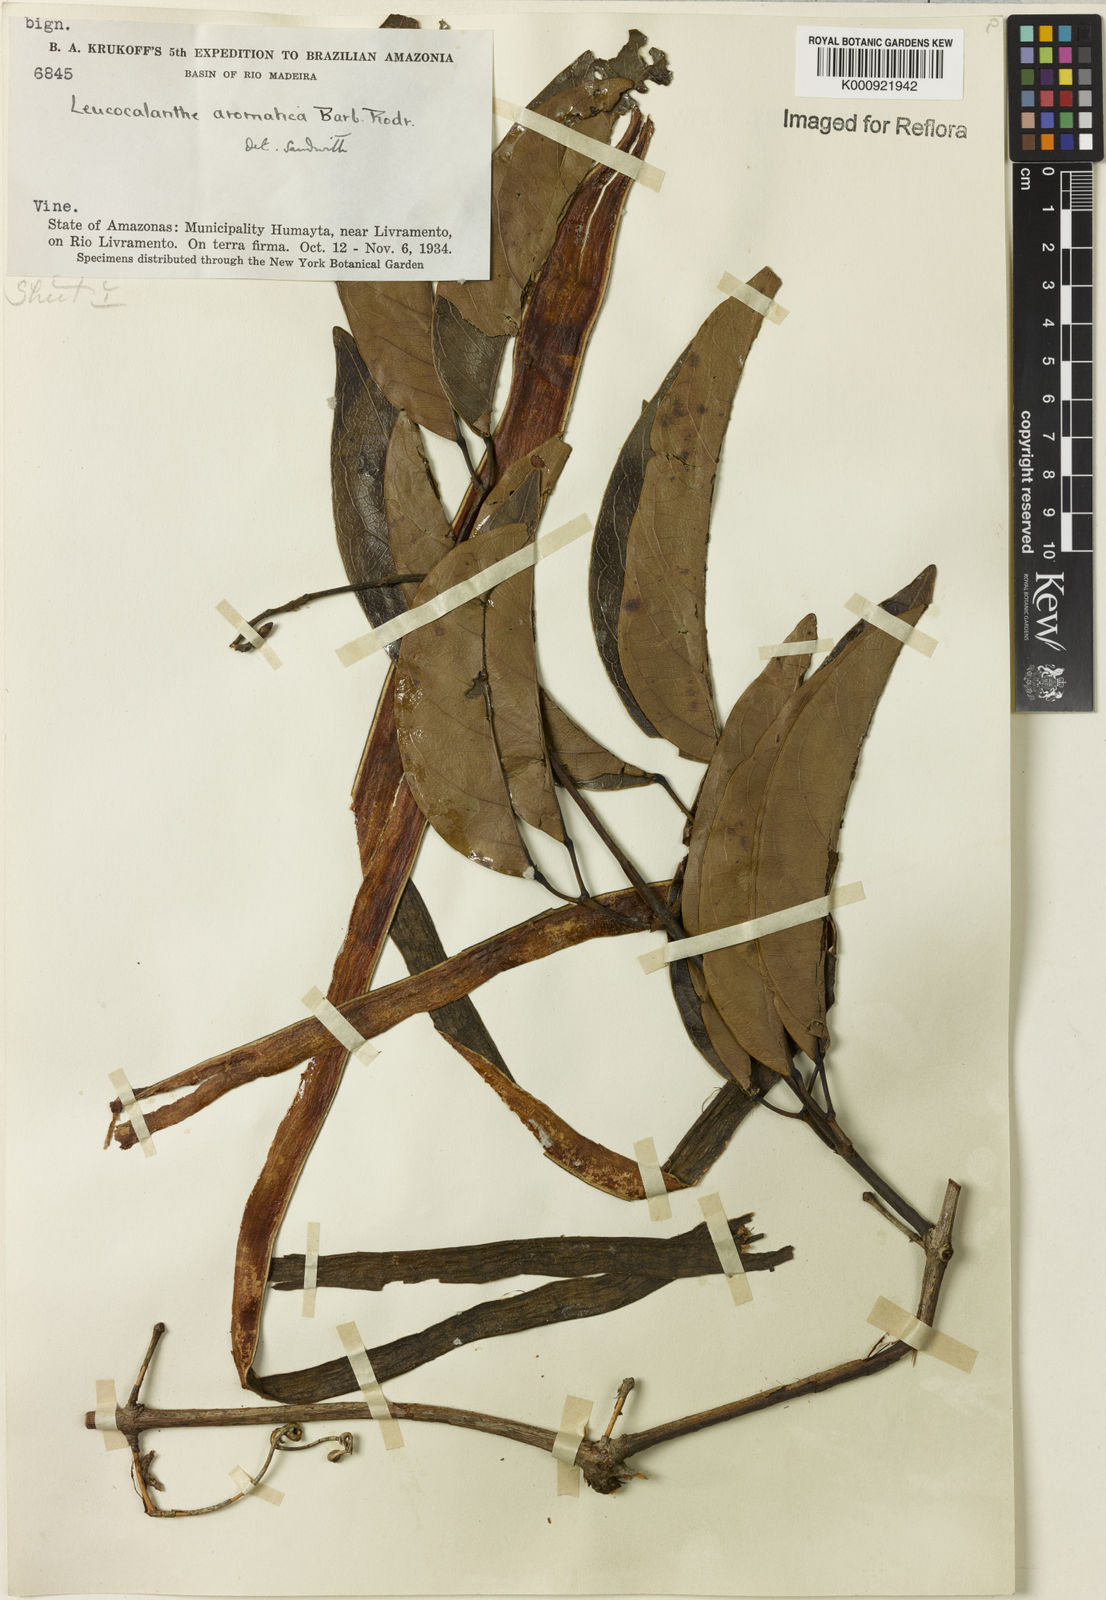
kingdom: Plantae
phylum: Tracheophyta
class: Magnoliopsida
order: Lamiales
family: Bignoniaceae
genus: Pachyptera
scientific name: Pachyptera aromatica
